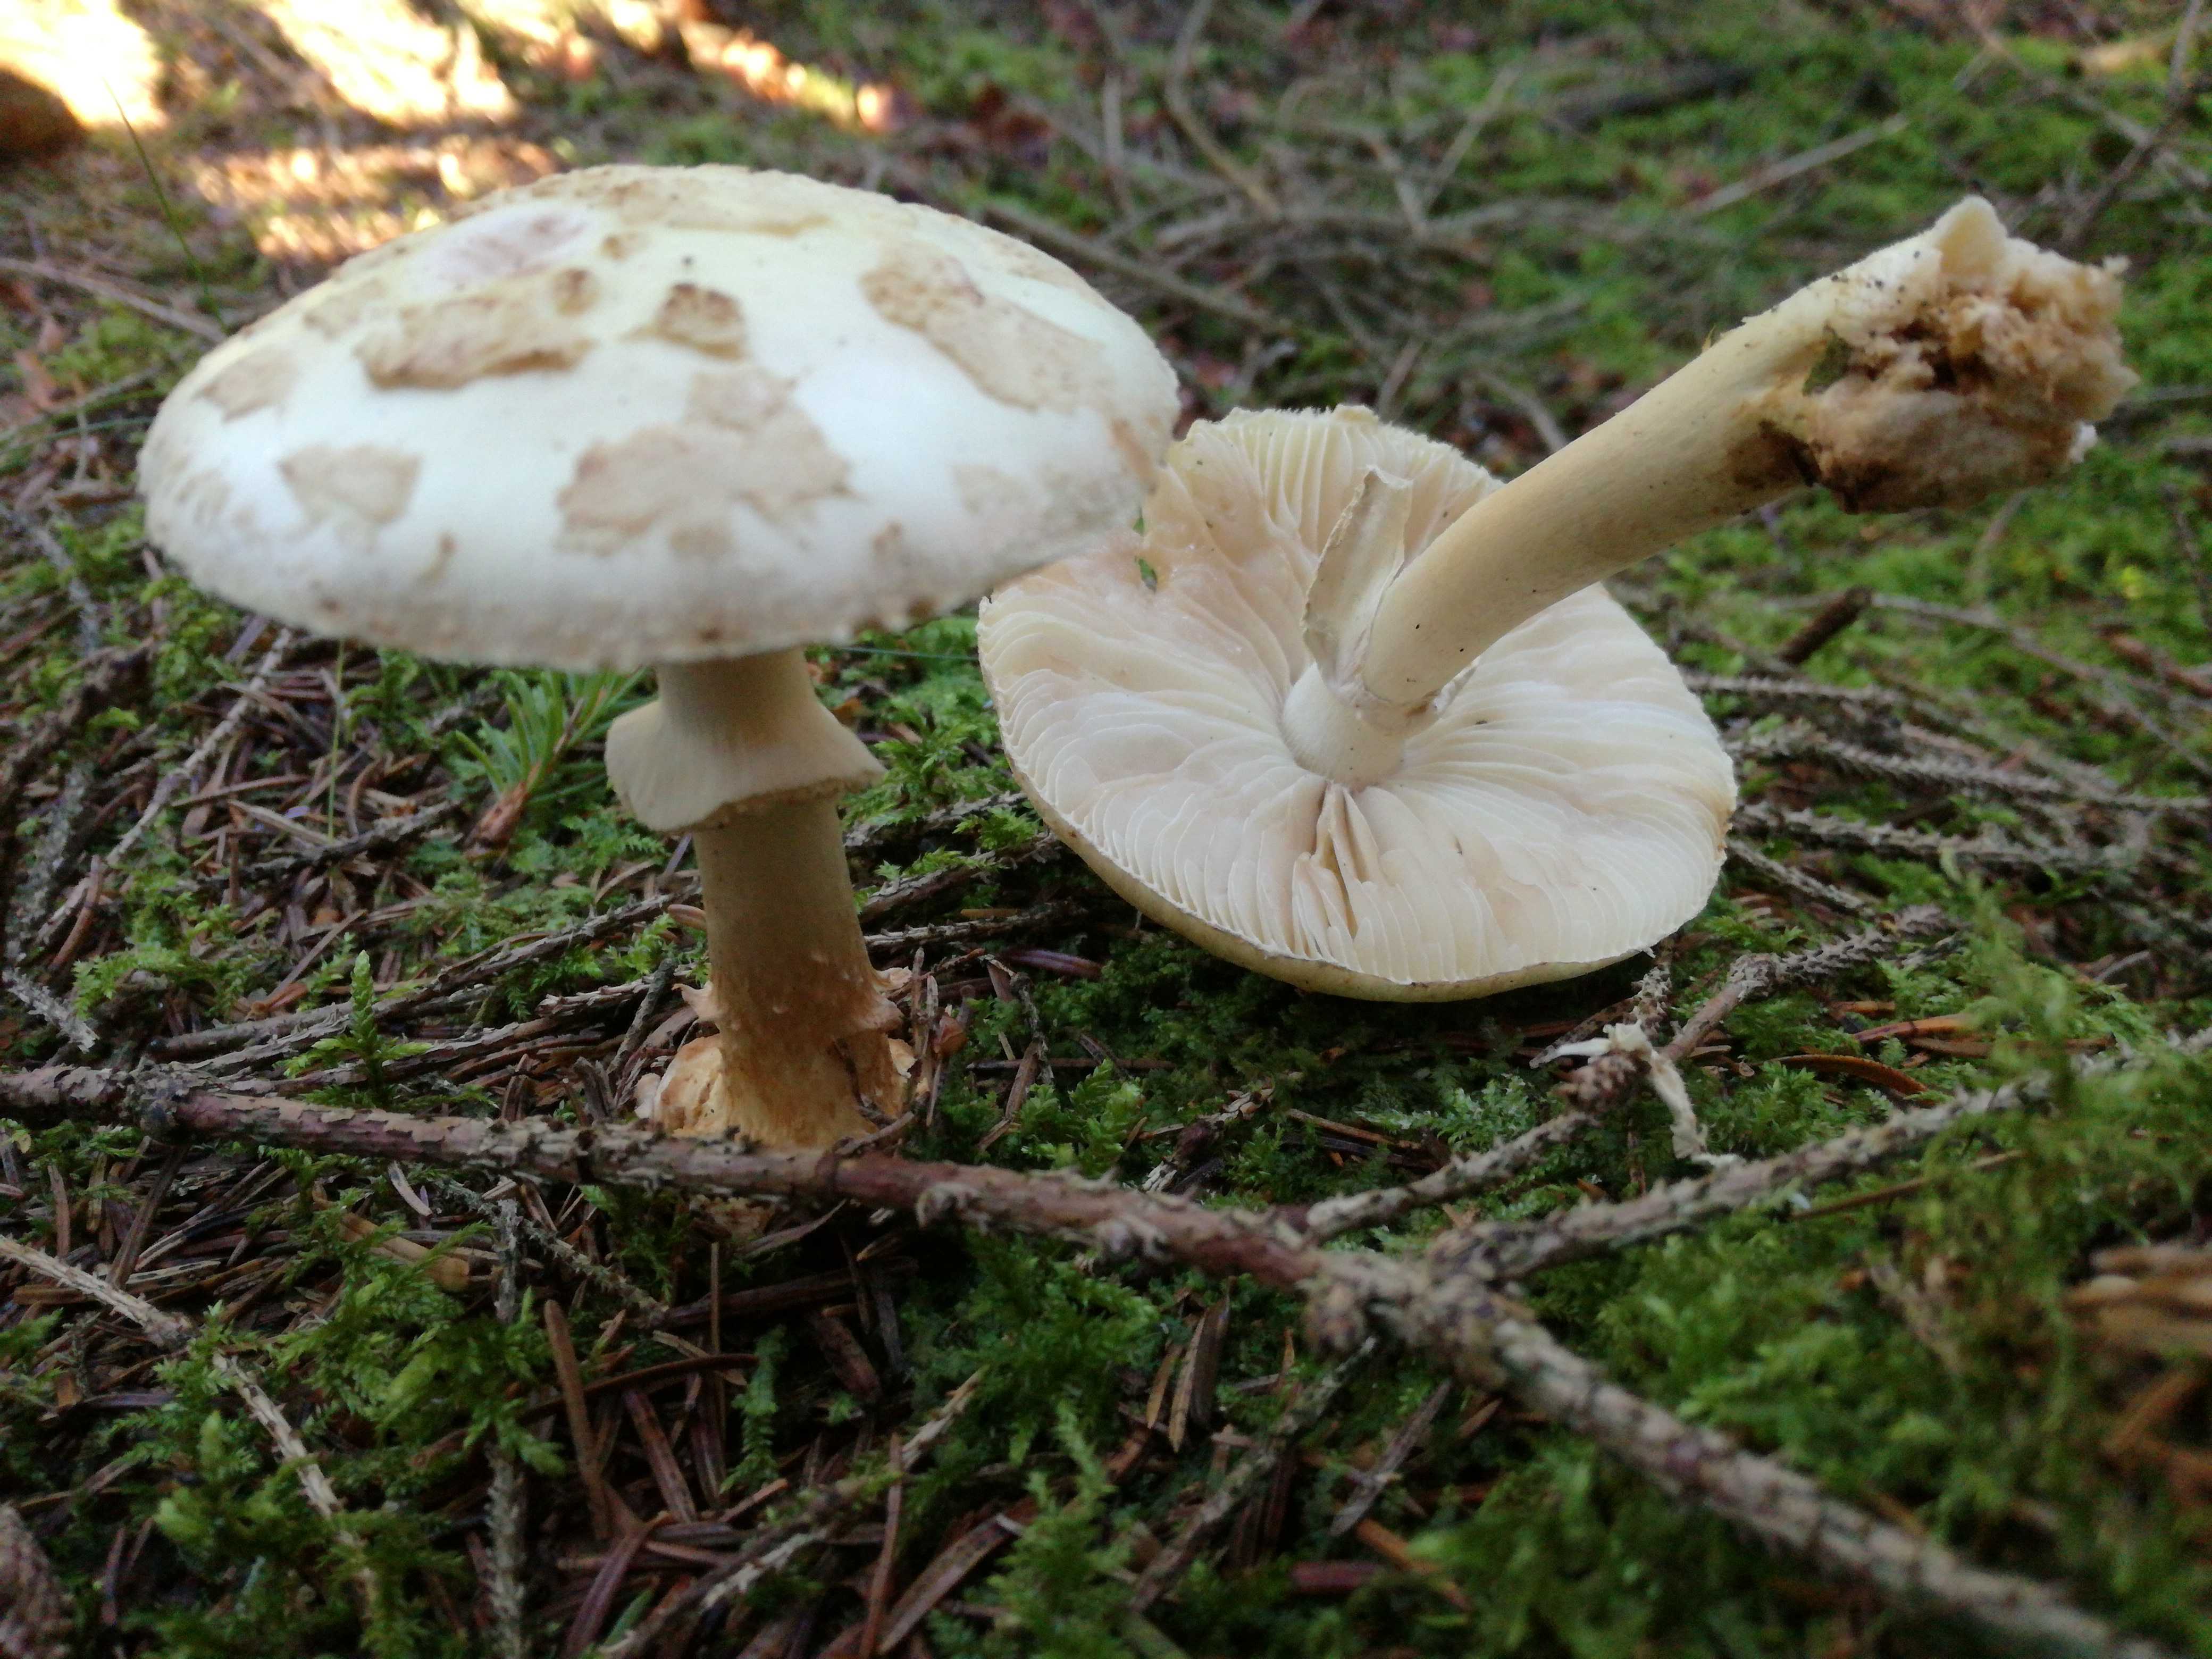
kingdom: Fungi
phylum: Basidiomycota
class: Agaricomycetes
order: Agaricales
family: Amanitaceae
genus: Amanita
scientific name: Amanita citrina
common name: kugleknoldet fluesvamp
